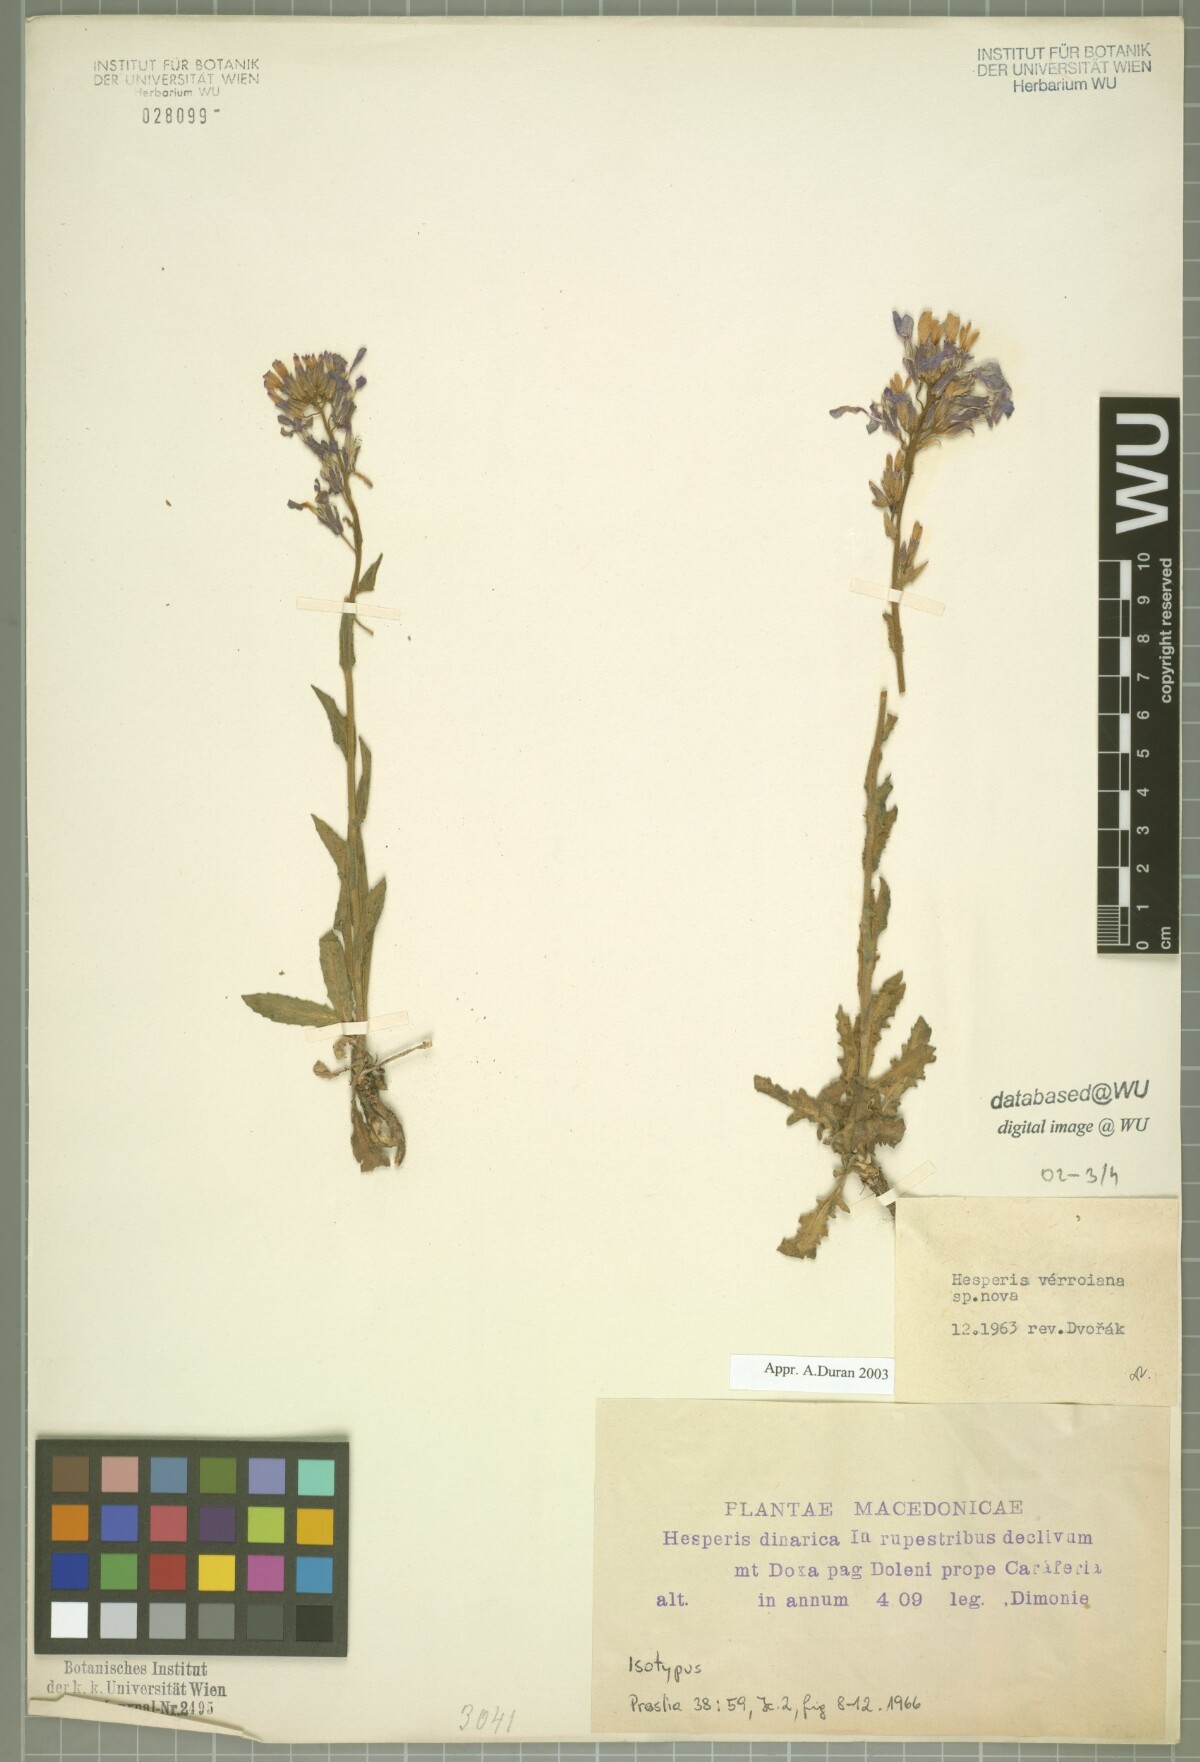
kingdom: Plantae
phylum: Tracheophyta
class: Magnoliopsida
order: Brassicales
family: Brassicaceae
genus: Hesperis
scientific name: Hesperis theophrasti
